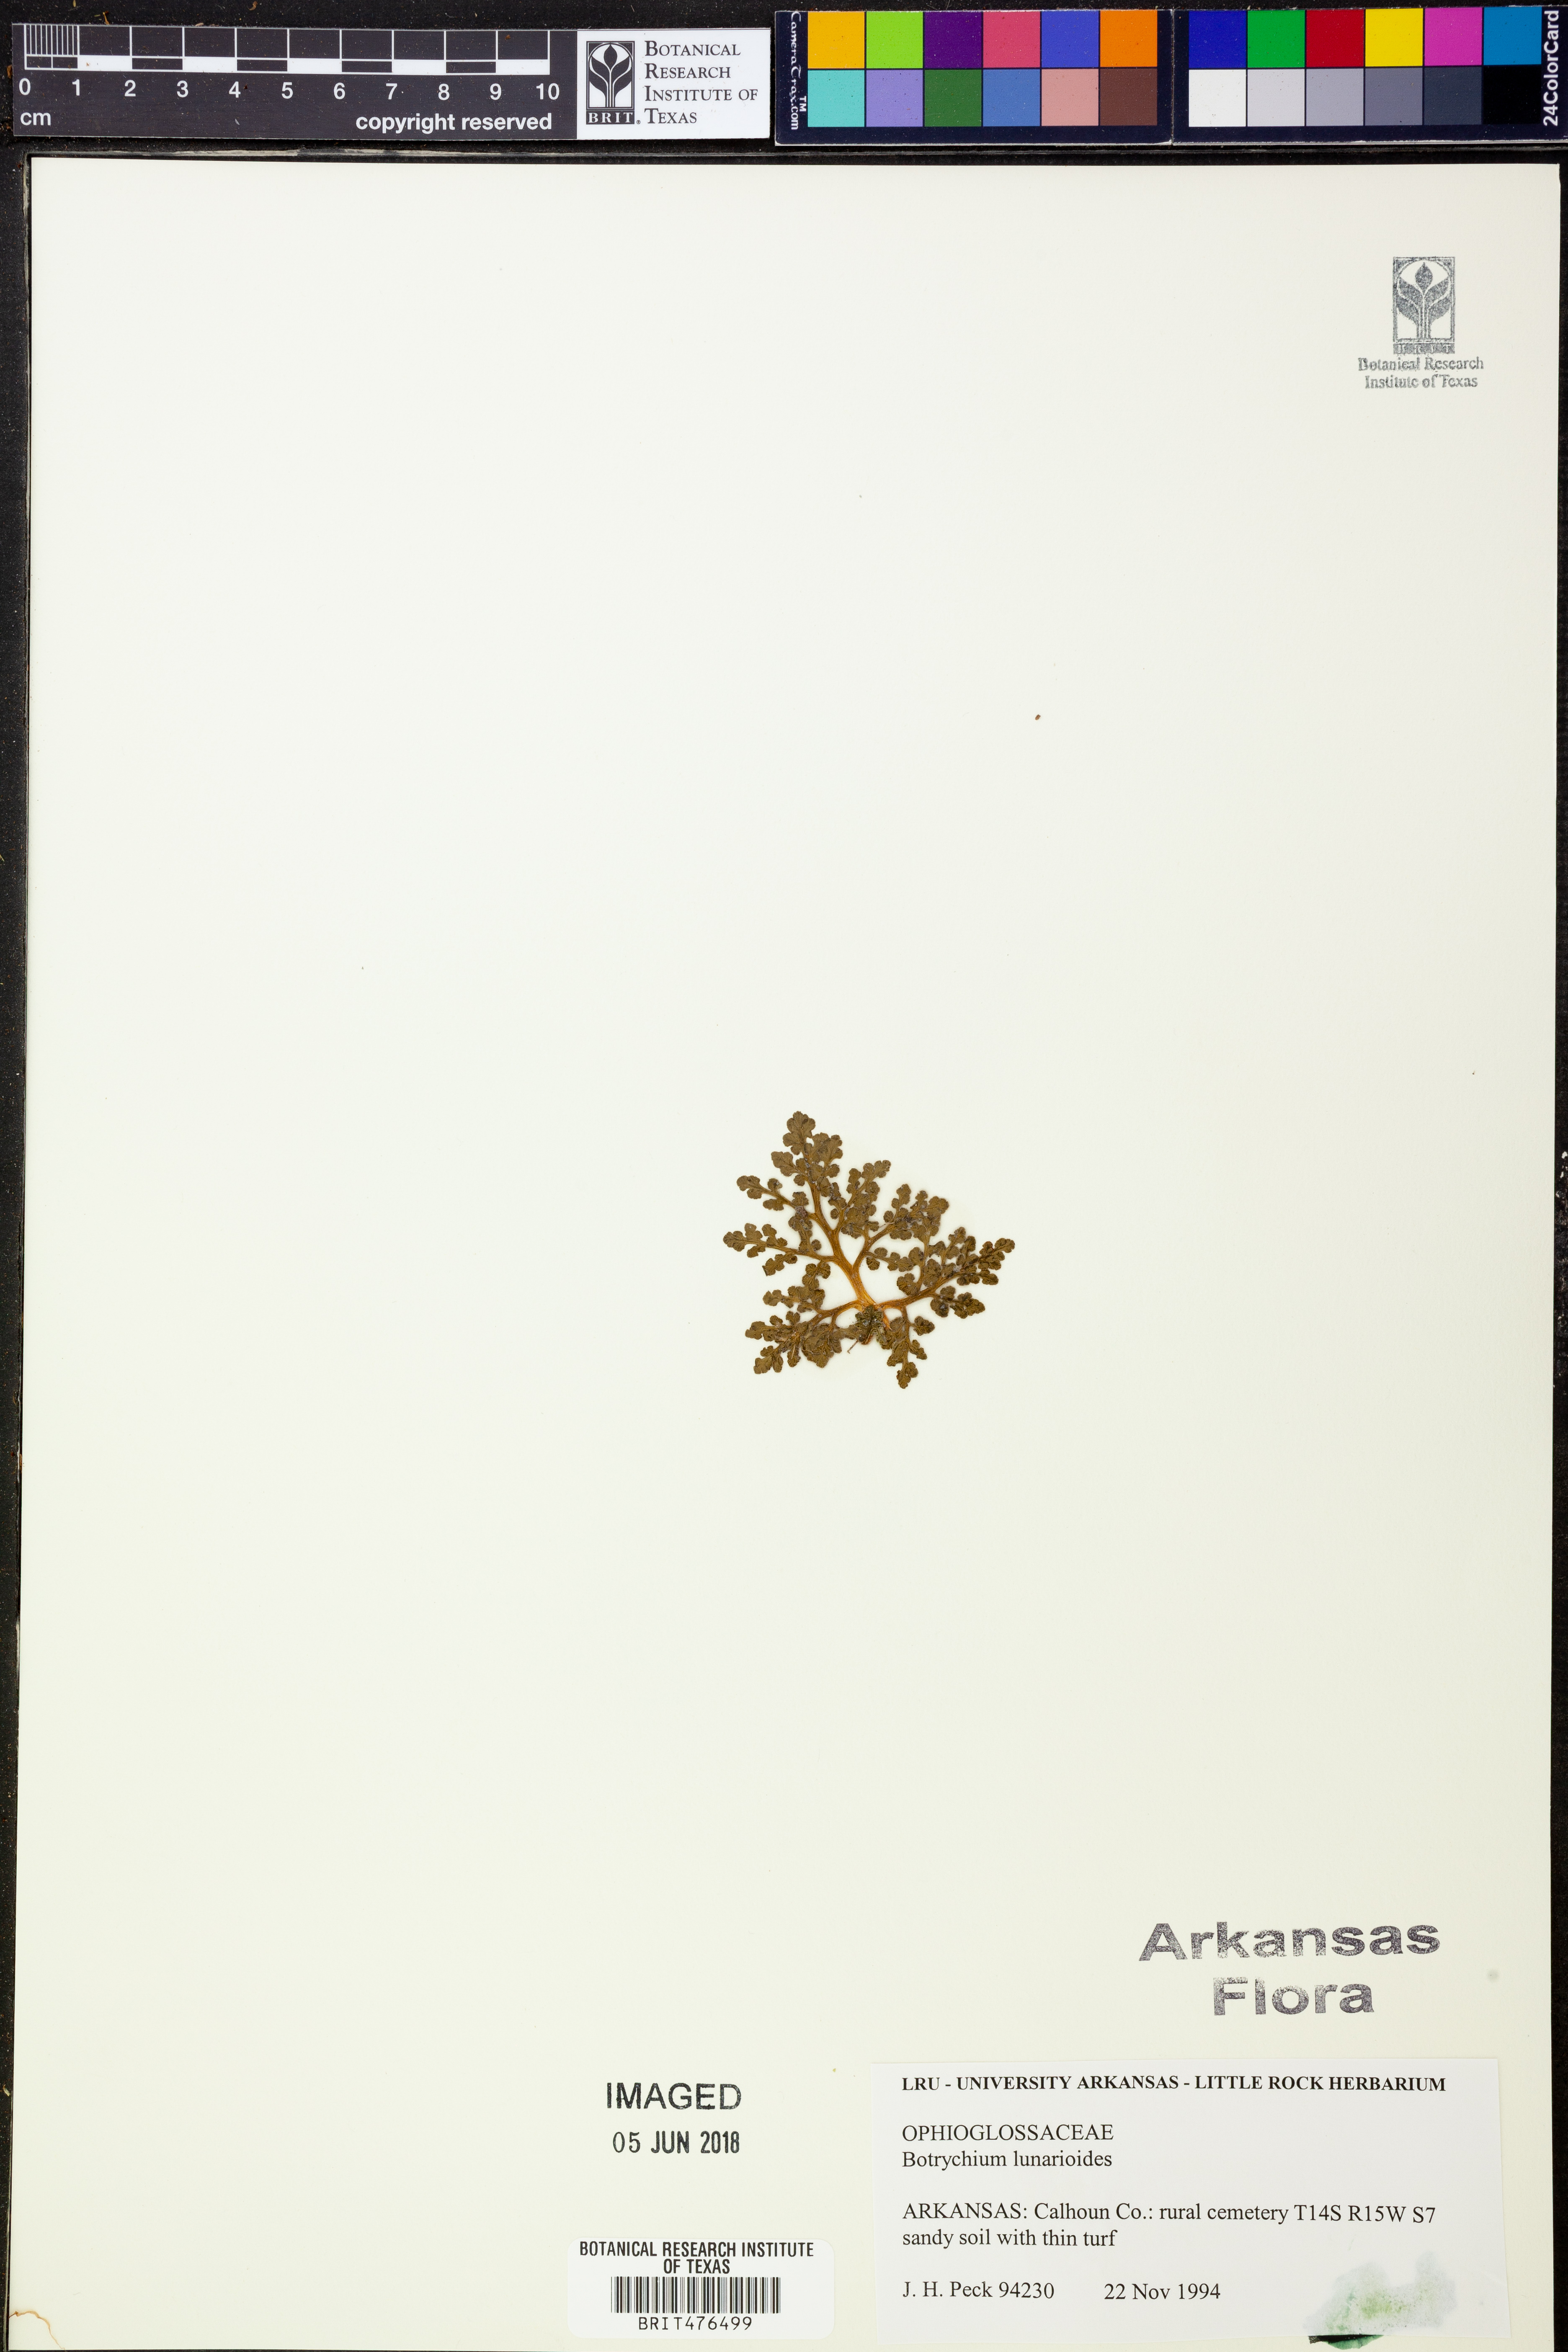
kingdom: Plantae
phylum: Tracheophyta
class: Polypodiopsida
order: Ophioglossales
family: Ophioglossaceae
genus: Sceptridium
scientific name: Sceptridium lunarioides
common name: Prostrate grapefern
